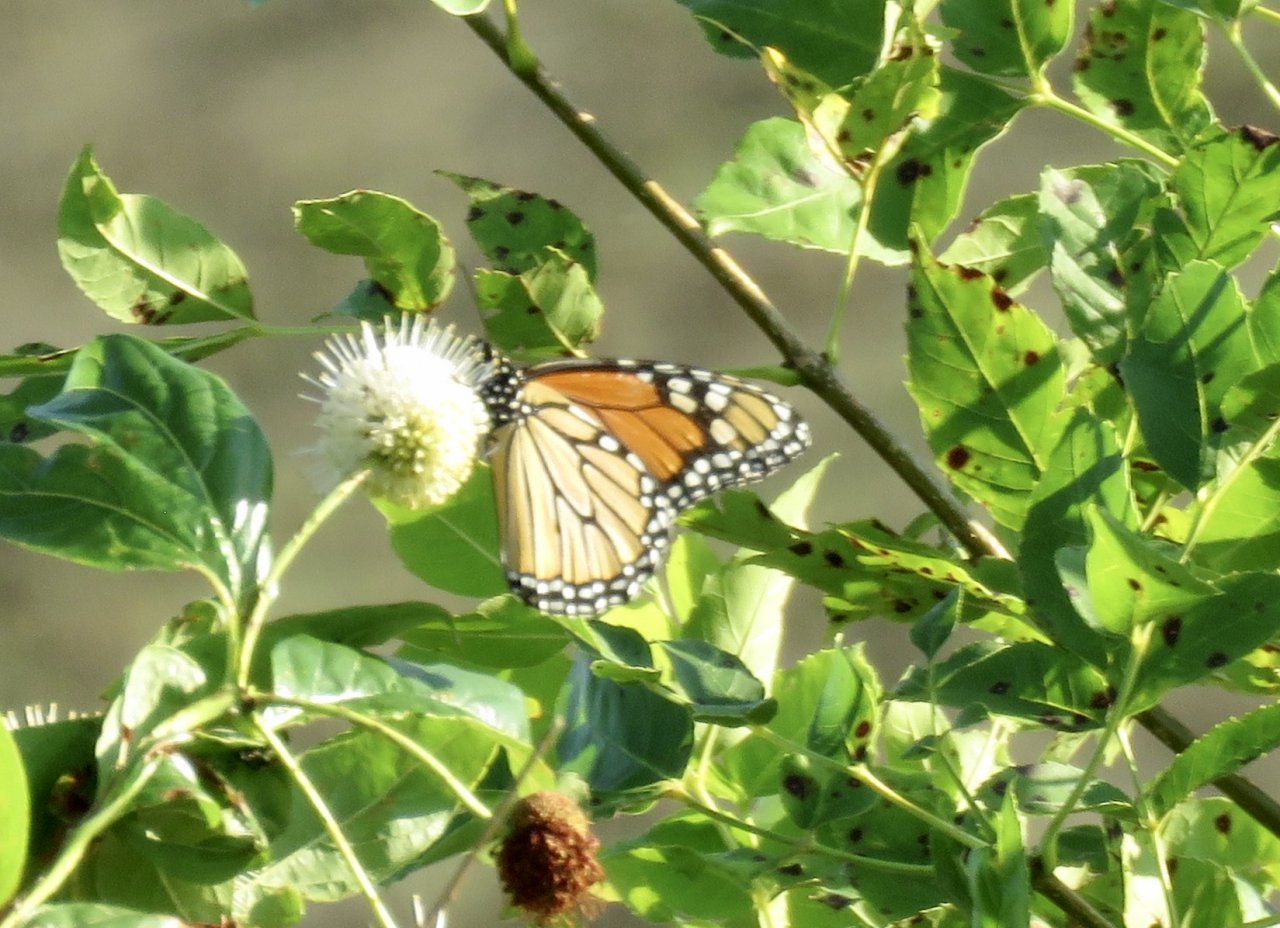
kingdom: Animalia
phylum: Arthropoda
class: Insecta
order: Lepidoptera
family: Nymphalidae
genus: Danaus
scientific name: Danaus plexippus
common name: Monarch
